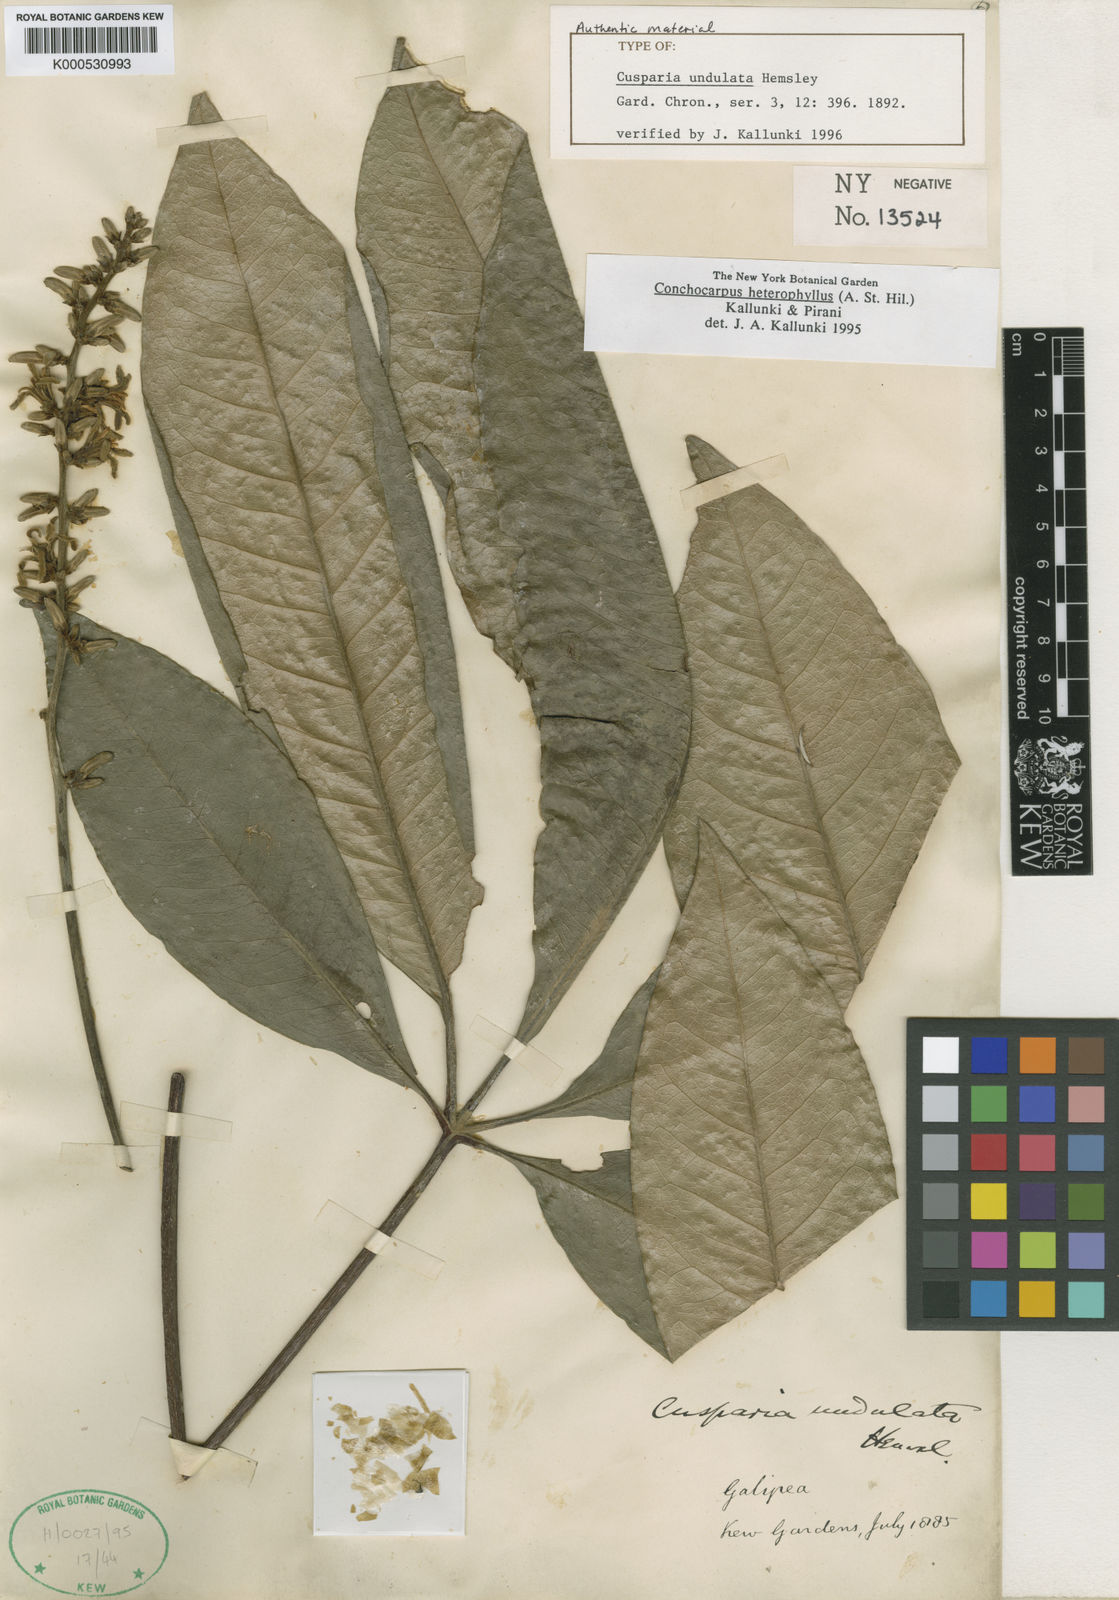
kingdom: Plantae
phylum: Tracheophyta
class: Magnoliopsida
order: Sapindales
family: Rutaceae
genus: Conchocarpus
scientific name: Conchocarpus heterophyllus
